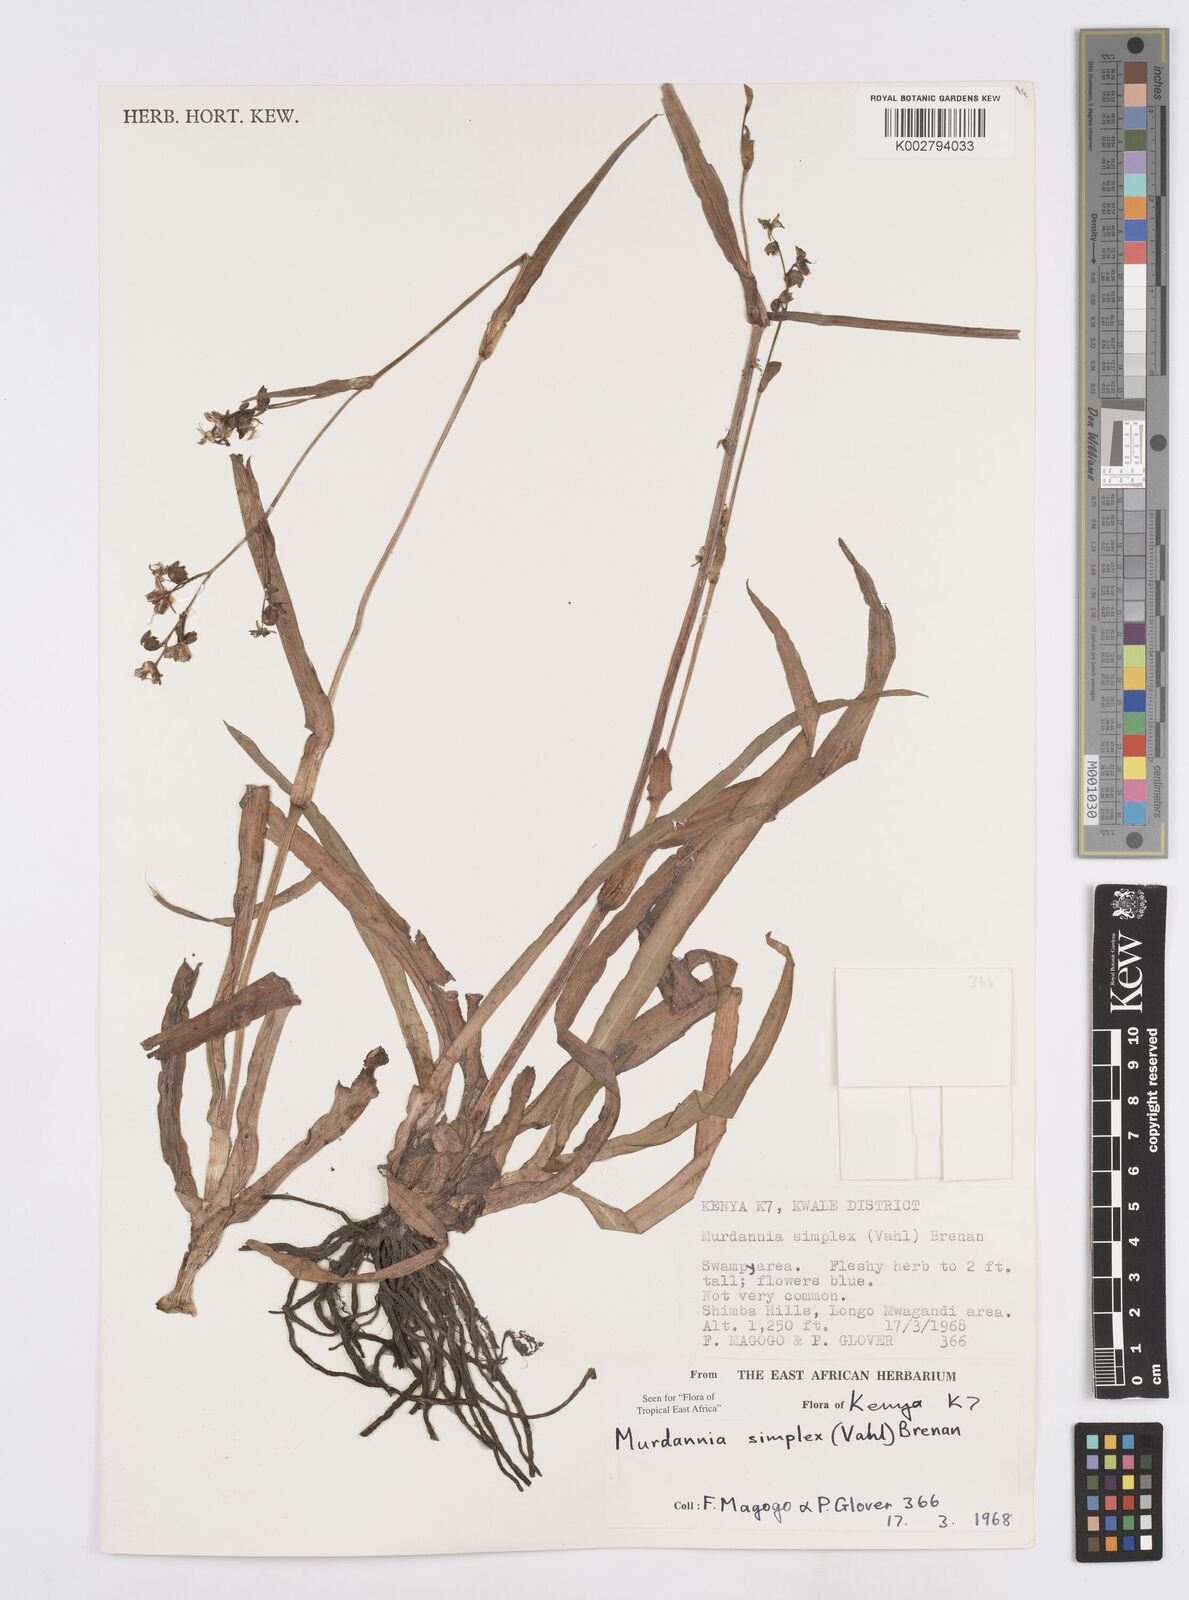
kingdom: Plantae
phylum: Tracheophyta
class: Liliopsida
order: Commelinales
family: Commelinaceae
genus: Murdannia
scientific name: Murdannia simplex
